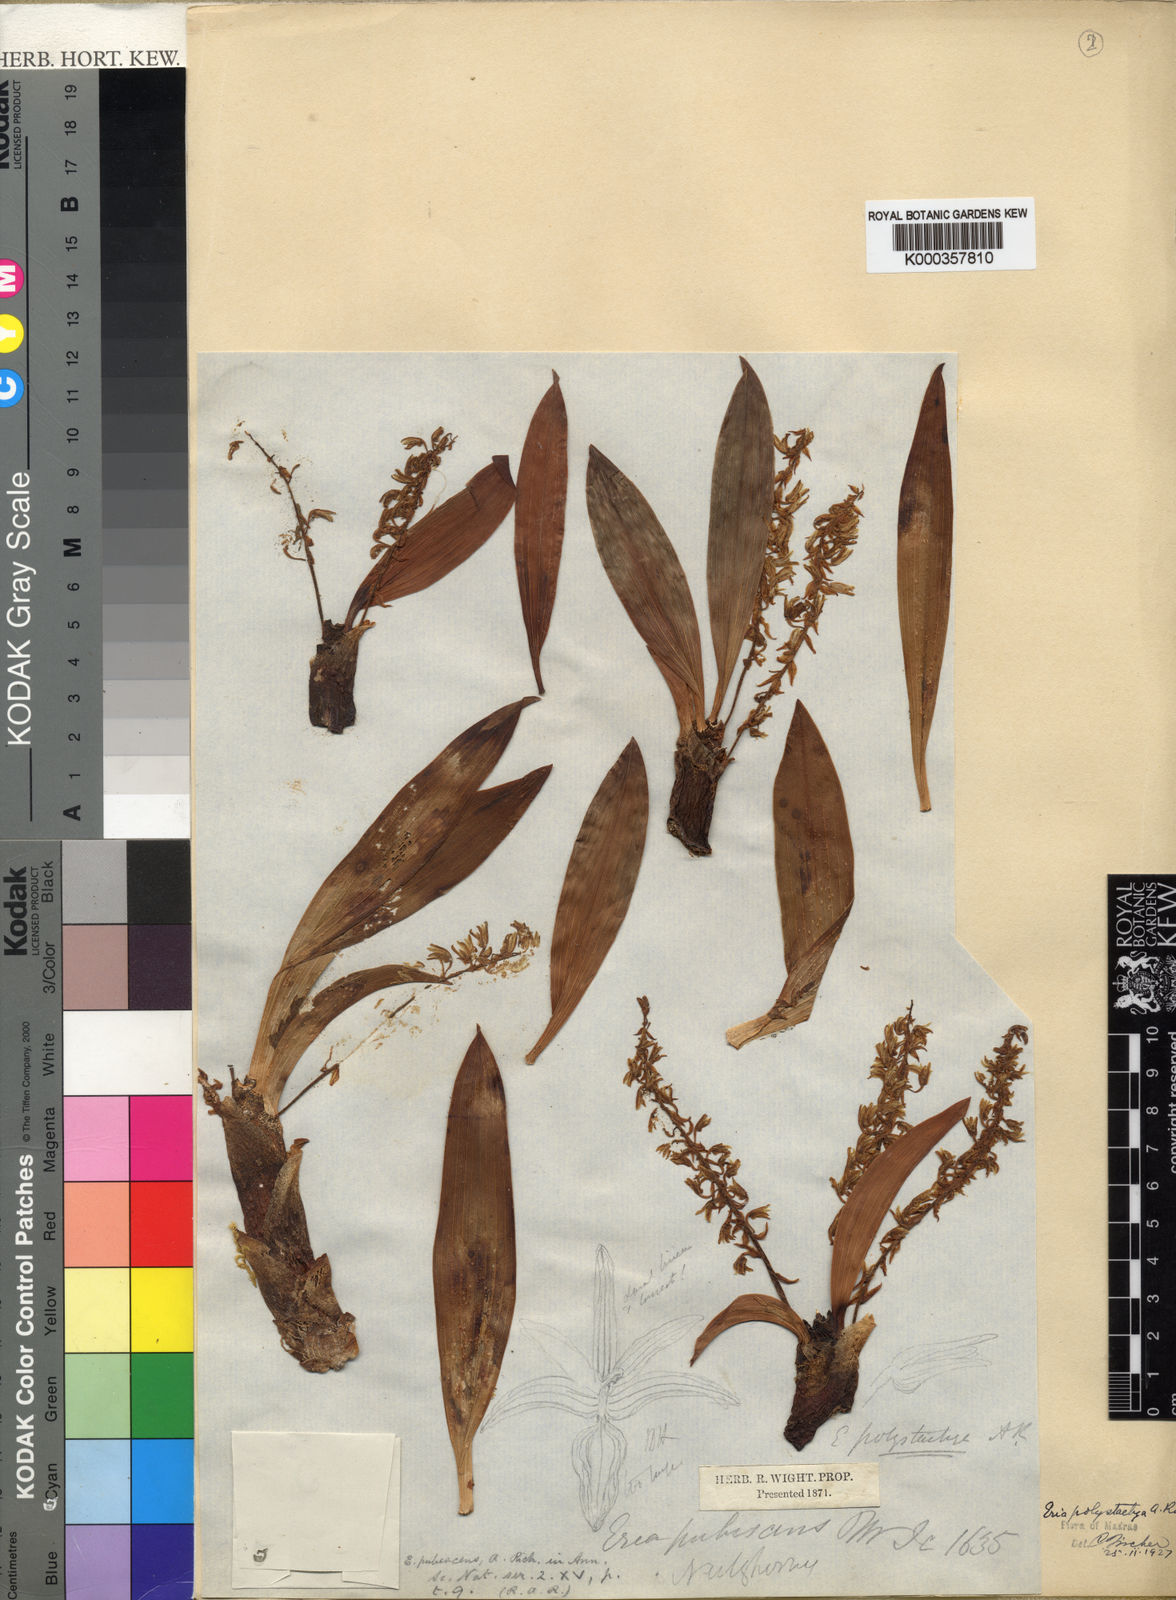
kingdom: Plantae
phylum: Tracheophyta
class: Liliopsida
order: Asparagales
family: Orchidaceae
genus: Pinalia
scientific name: Pinalia polystachya
